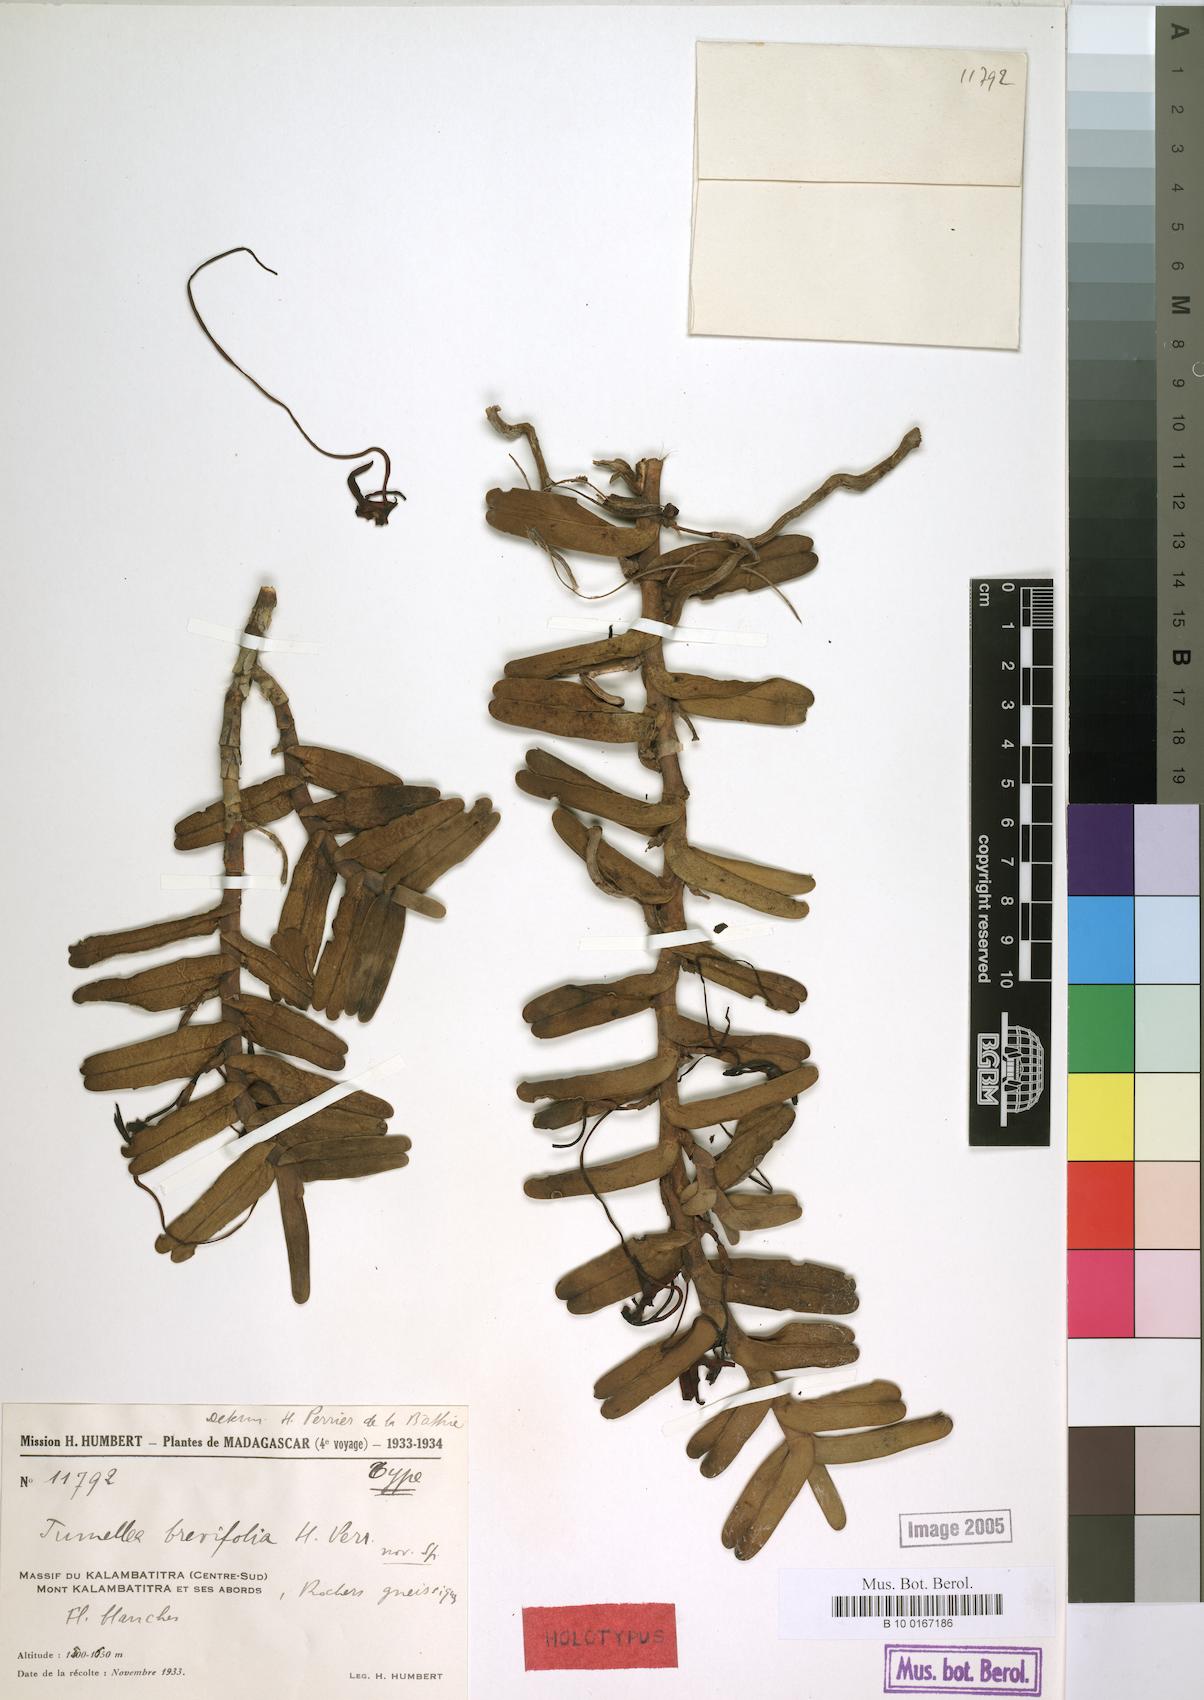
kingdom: Plantae
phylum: Tracheophyta
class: Liliopsida
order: Asparagales
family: Orchidaceae
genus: Jumellea
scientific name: Jumellea brevifolia
